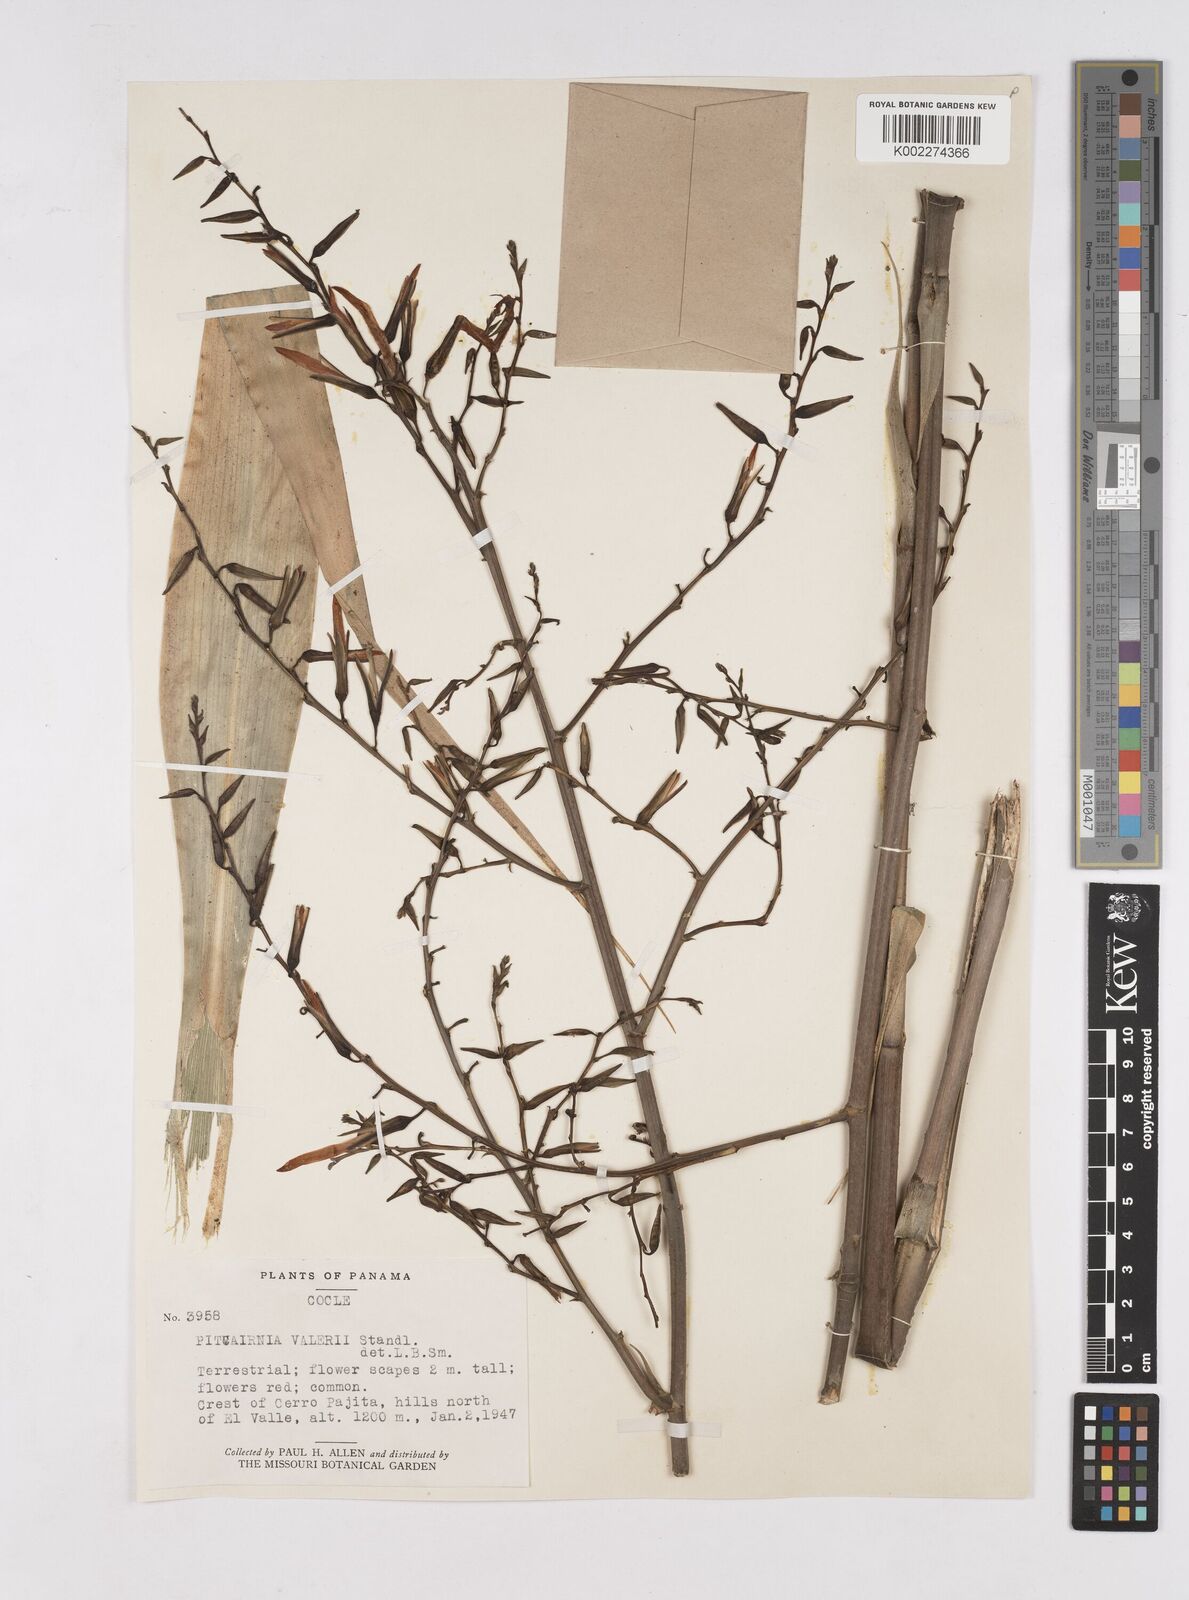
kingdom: Plantae
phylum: Tracheophyta
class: Liliopsida
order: Poales
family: Bromeliaceae
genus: Pitcairnia
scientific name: Pitcairnia valerii
